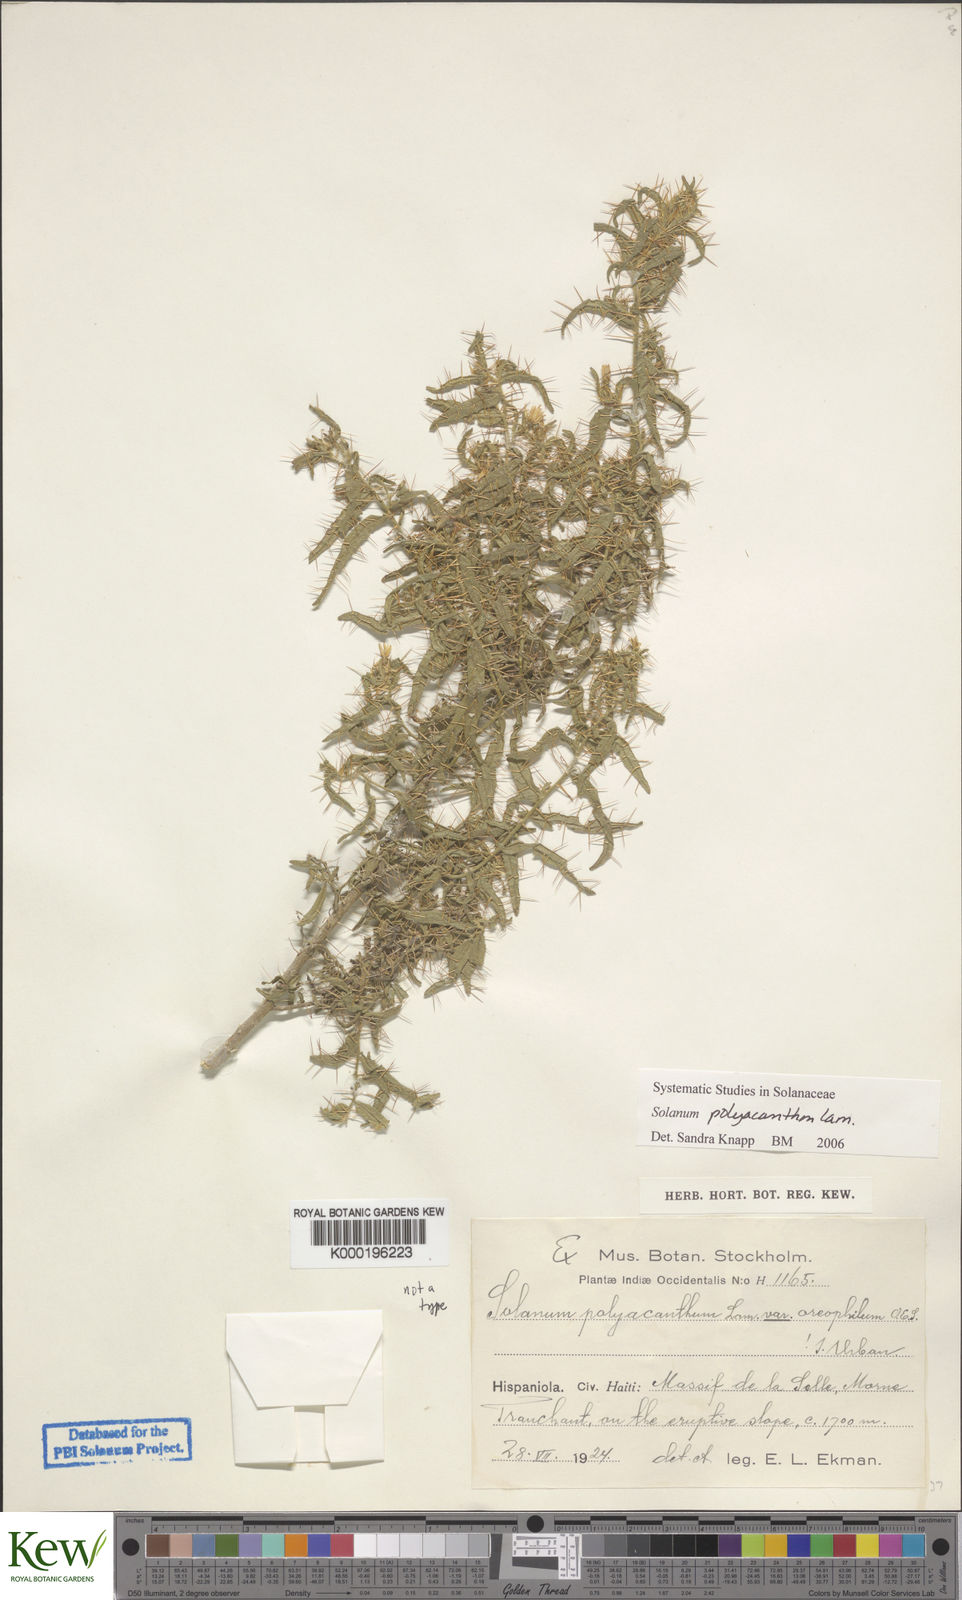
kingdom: Plantae
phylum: Tracheophyta
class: Magnoliopsida
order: Solanales
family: Solanaceae
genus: Solanum
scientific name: Solanum polyacanthos
